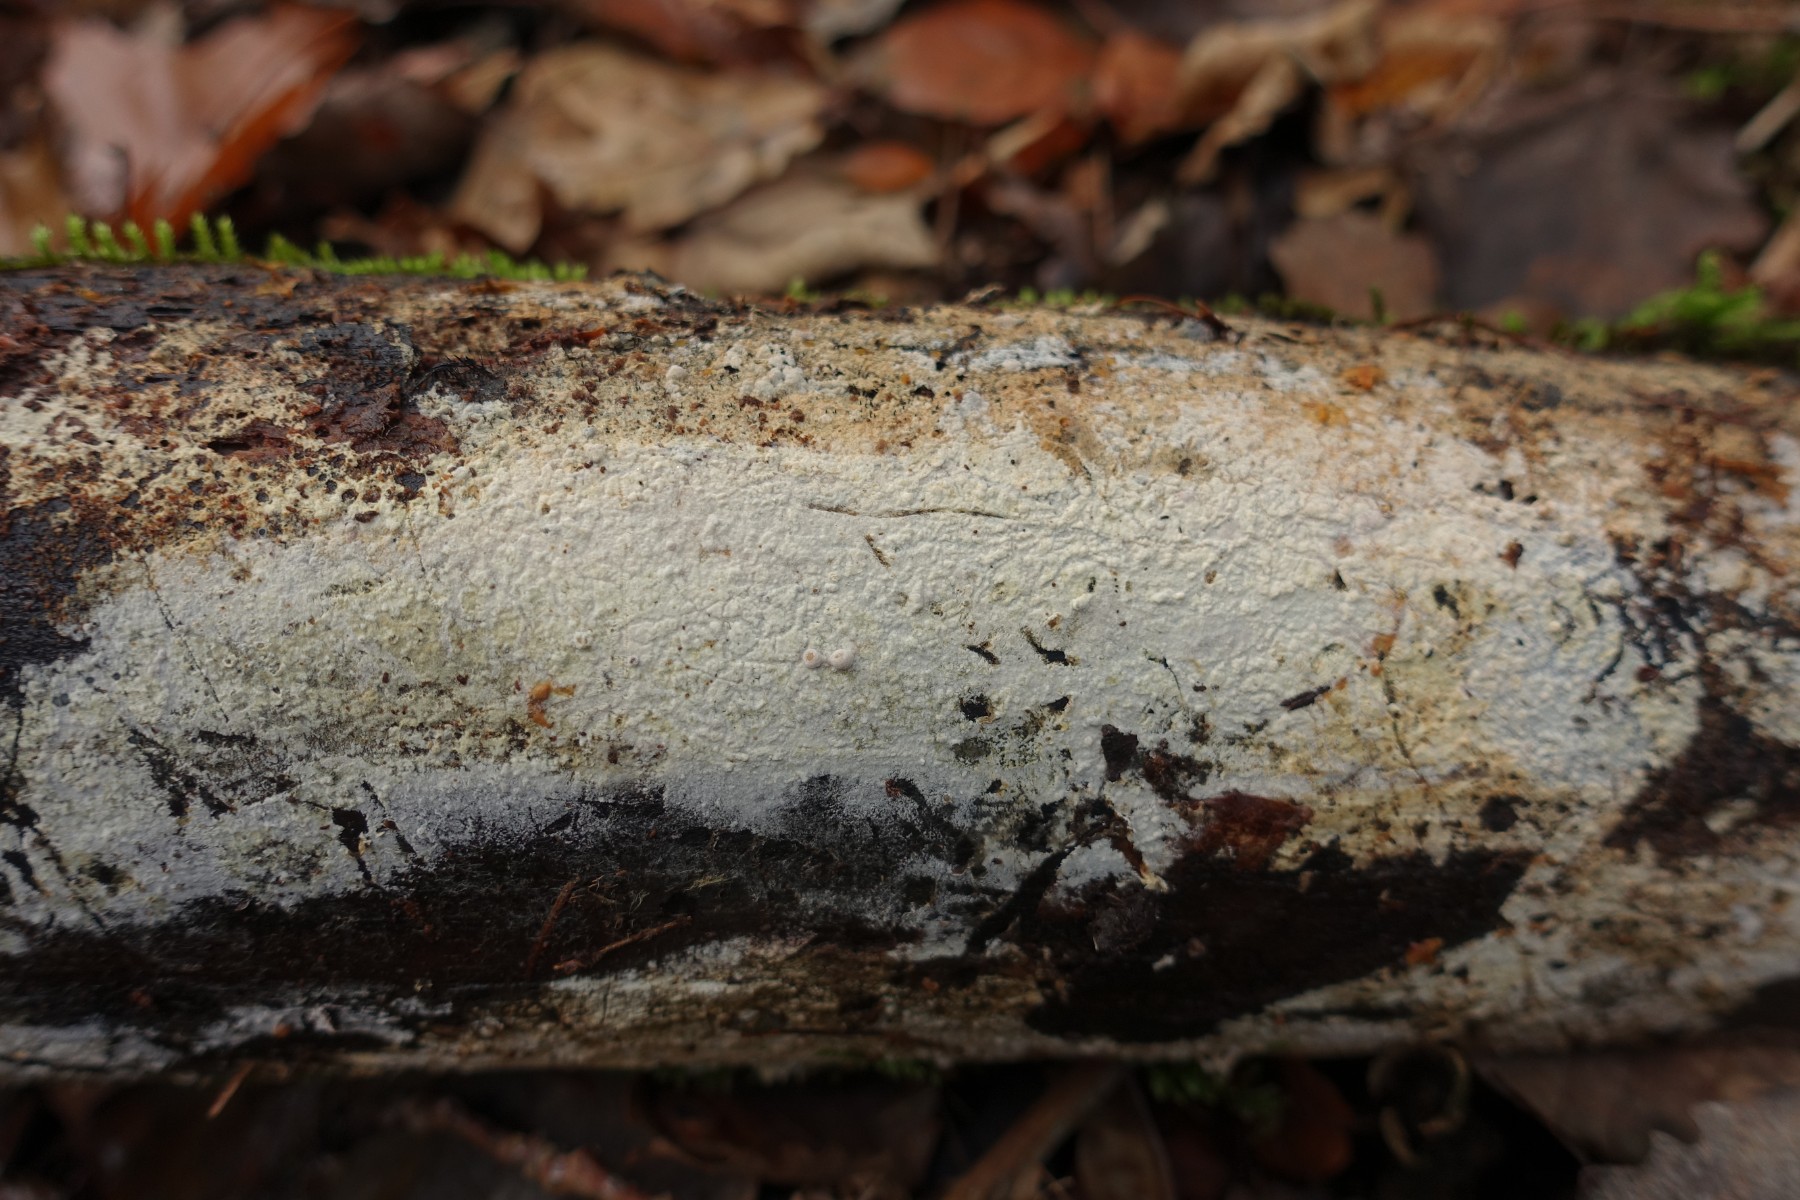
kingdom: Fungi
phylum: Basidiomycota
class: Agaricomycetes
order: Hymenochaetales
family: Rickenellaceae
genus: Peniophorella
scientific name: Peniophorella pubera
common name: dunet kalkskind
